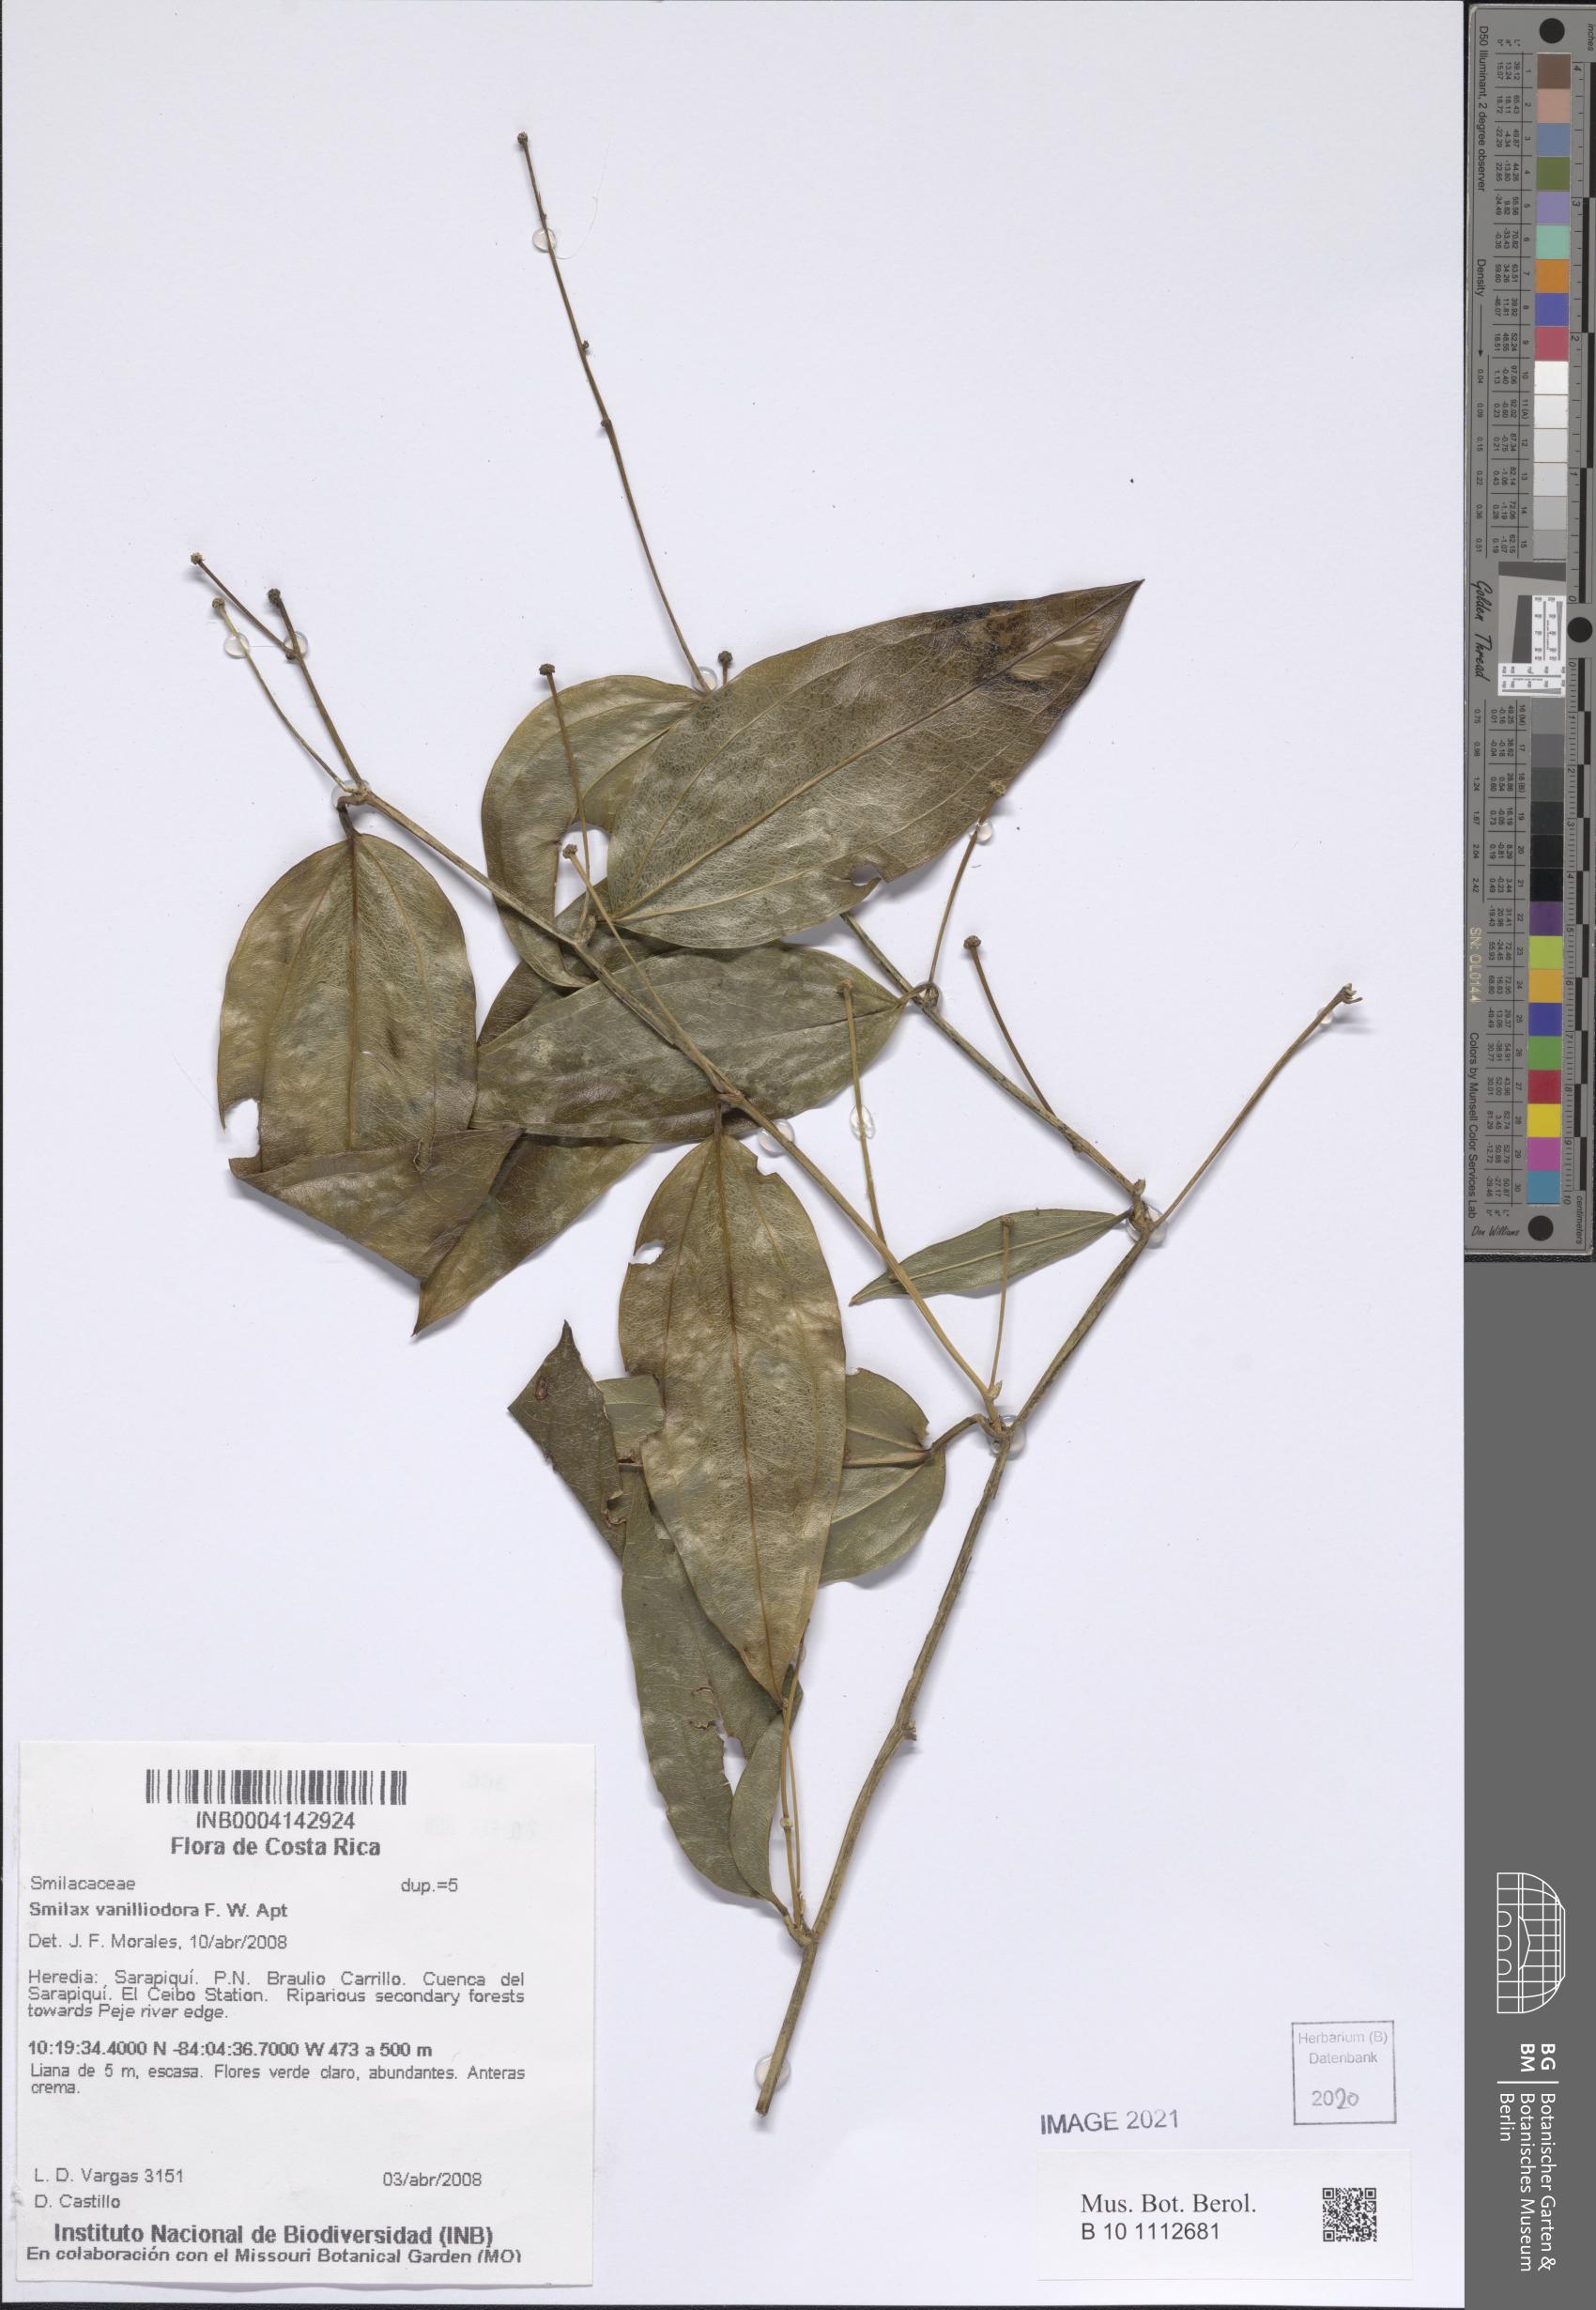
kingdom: Plantae
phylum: Tracheophyta
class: Liliopsida
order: Liliales
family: Smilacaceae
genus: Smilax
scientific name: Smilax officinalis
